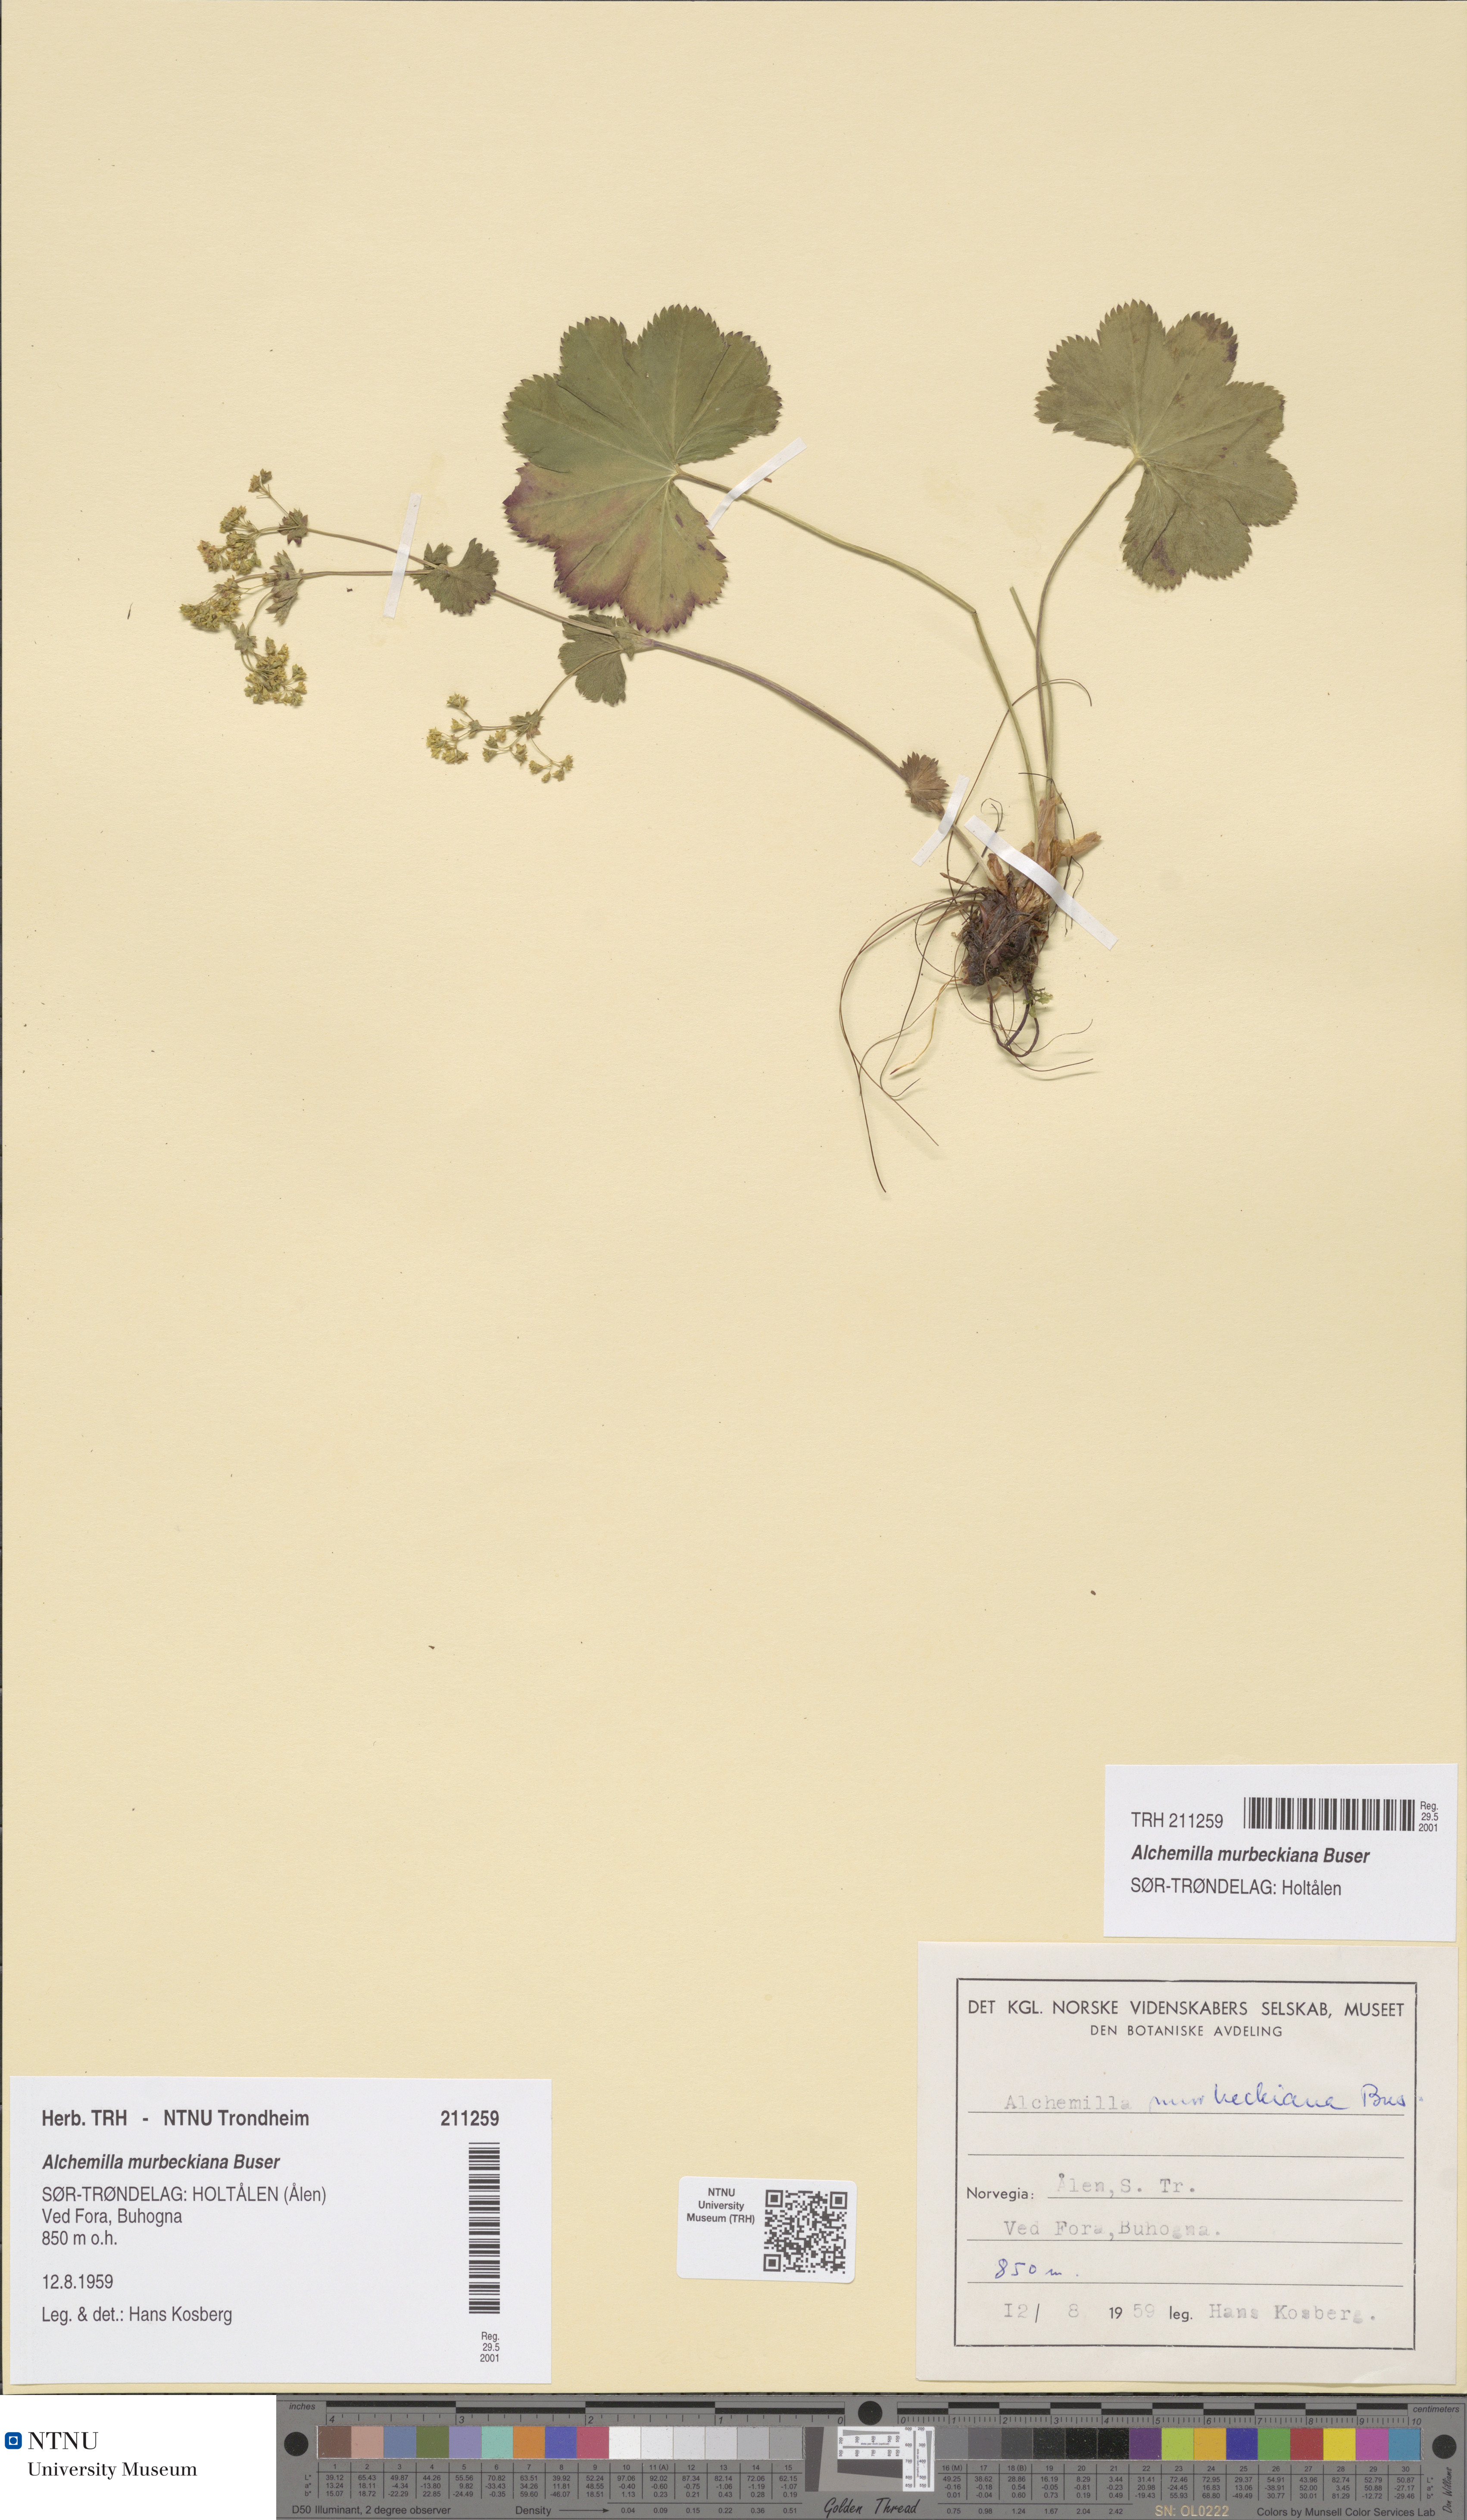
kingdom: Plantae
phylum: Tracheophyta
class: Magnoliopsida
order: Rosales
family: Rosaceae
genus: Alchemilla
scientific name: Alchemilla murbeckiana
